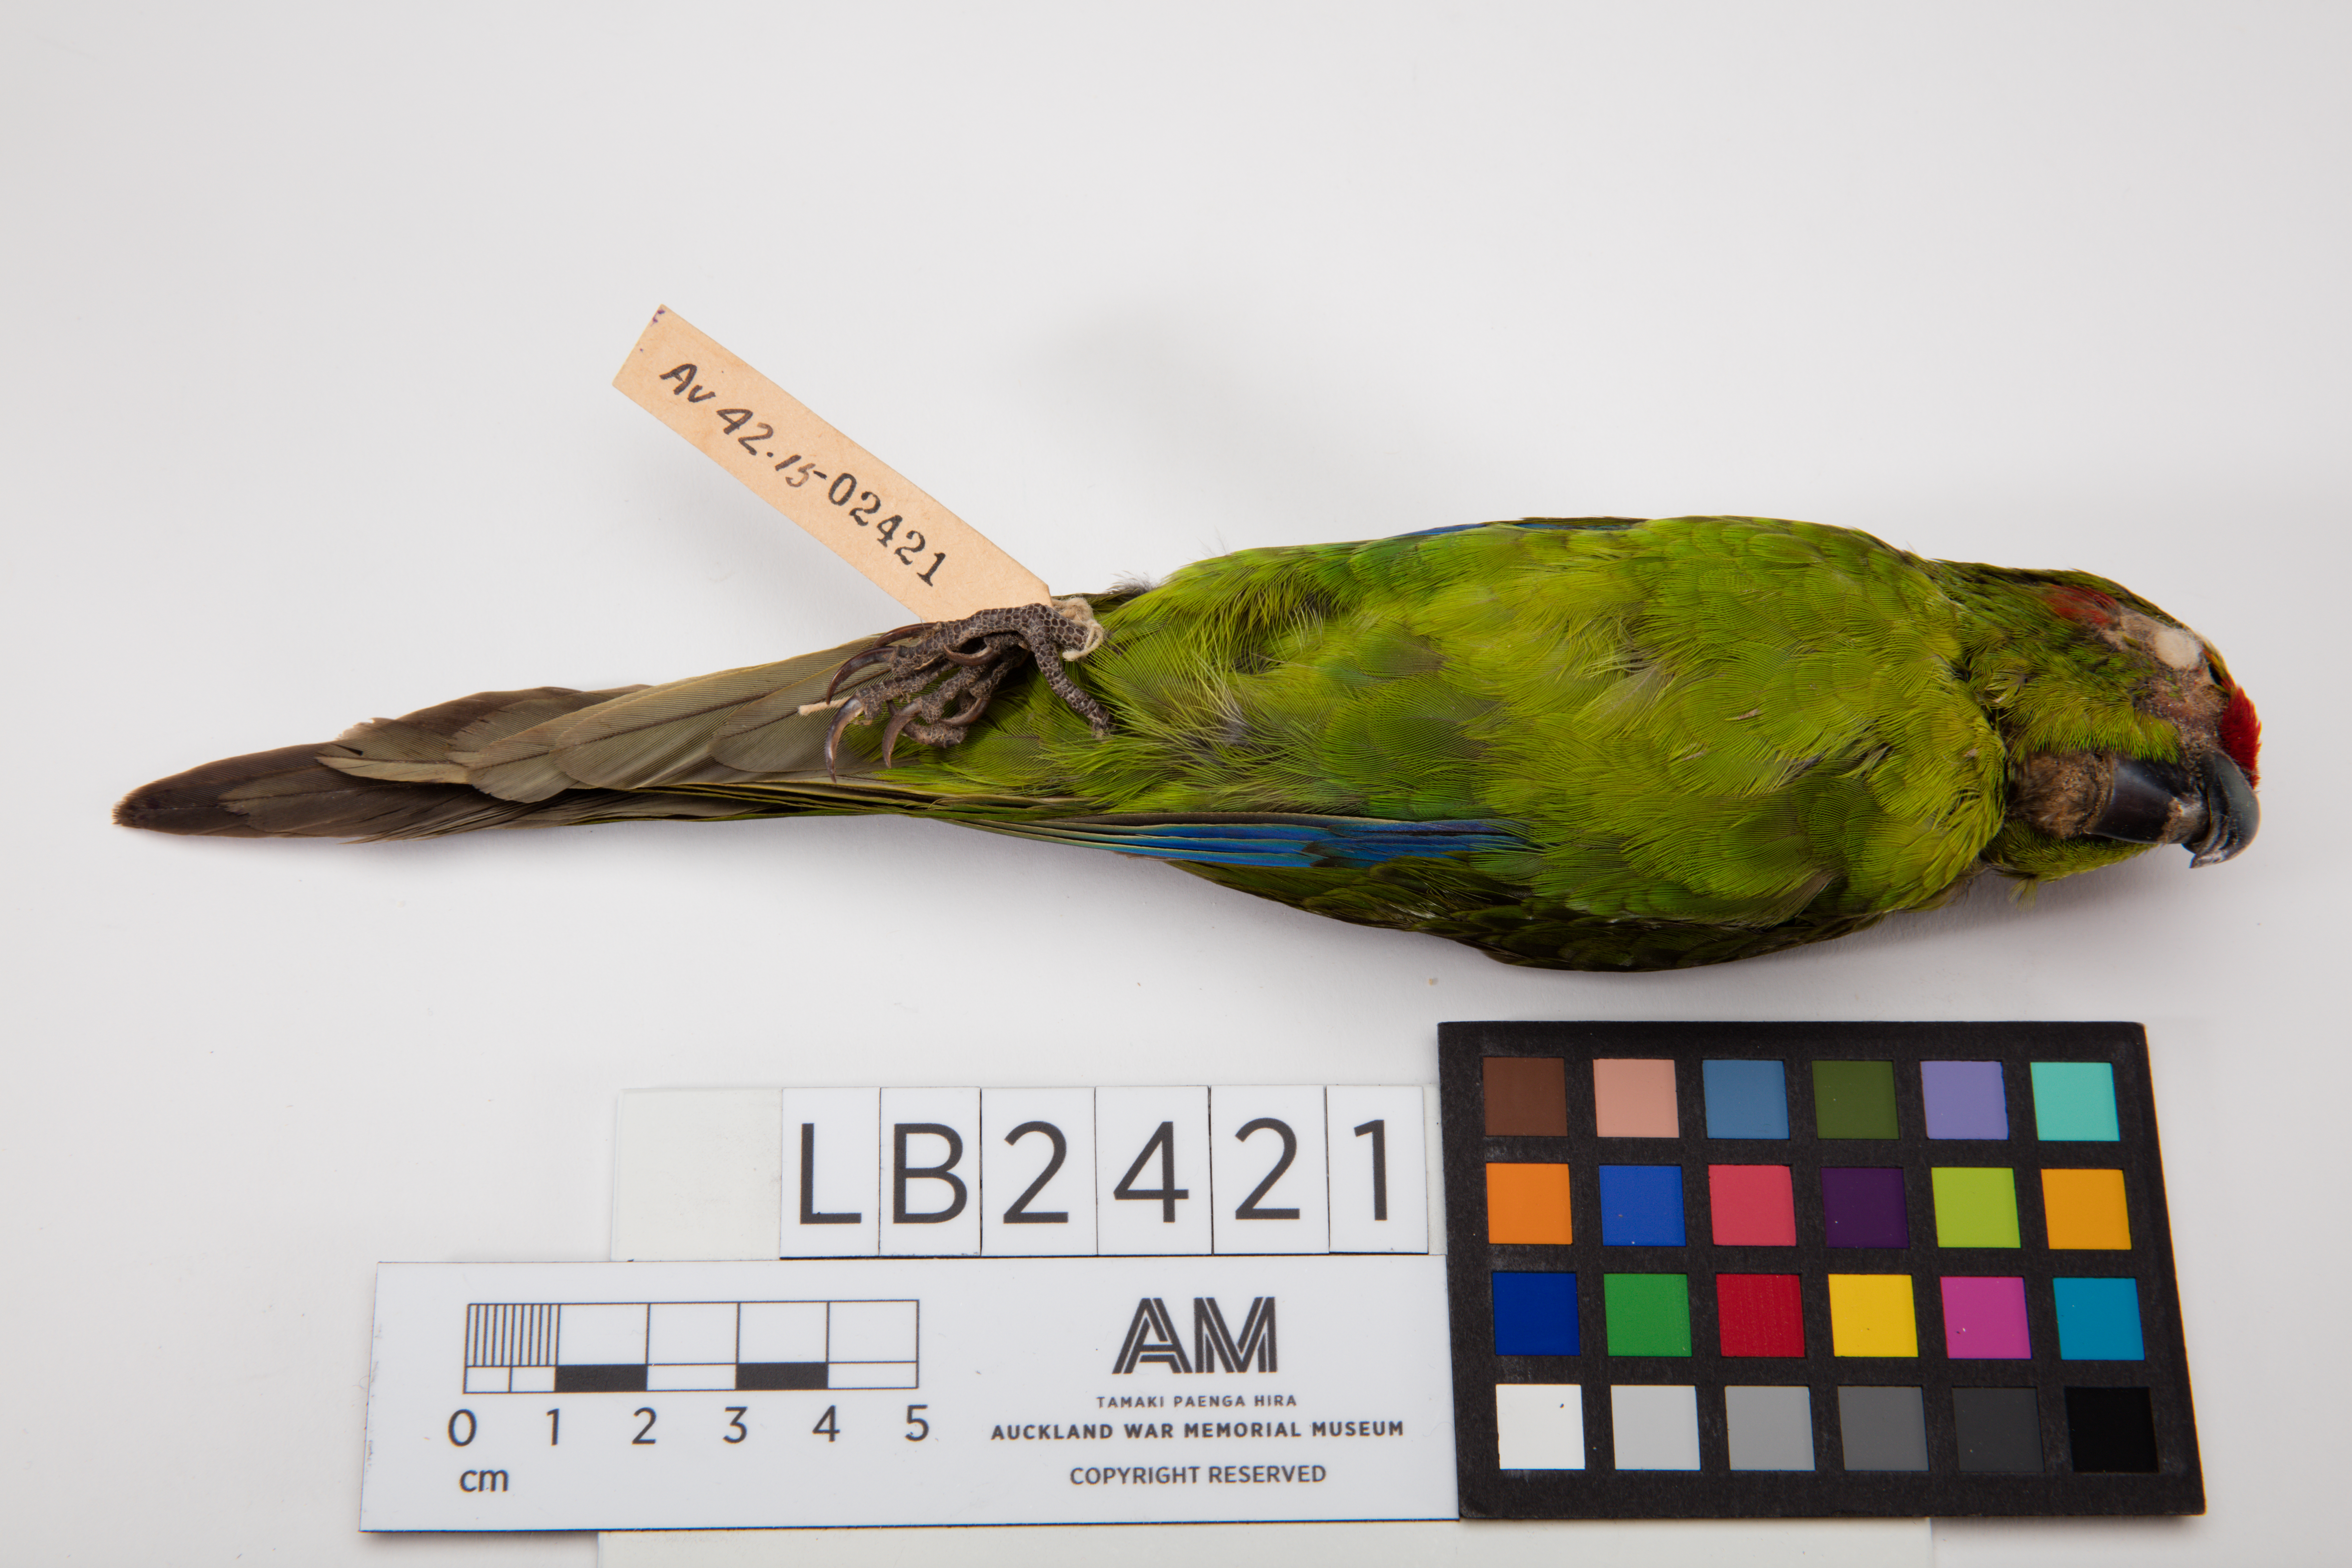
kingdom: Animalia
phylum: Chordata
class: Aves
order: Psittaciformes
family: Psittacidae
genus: Cyanoramphus
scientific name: Cyanoramphus novaezelandiae
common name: Red-fronted parakeet
